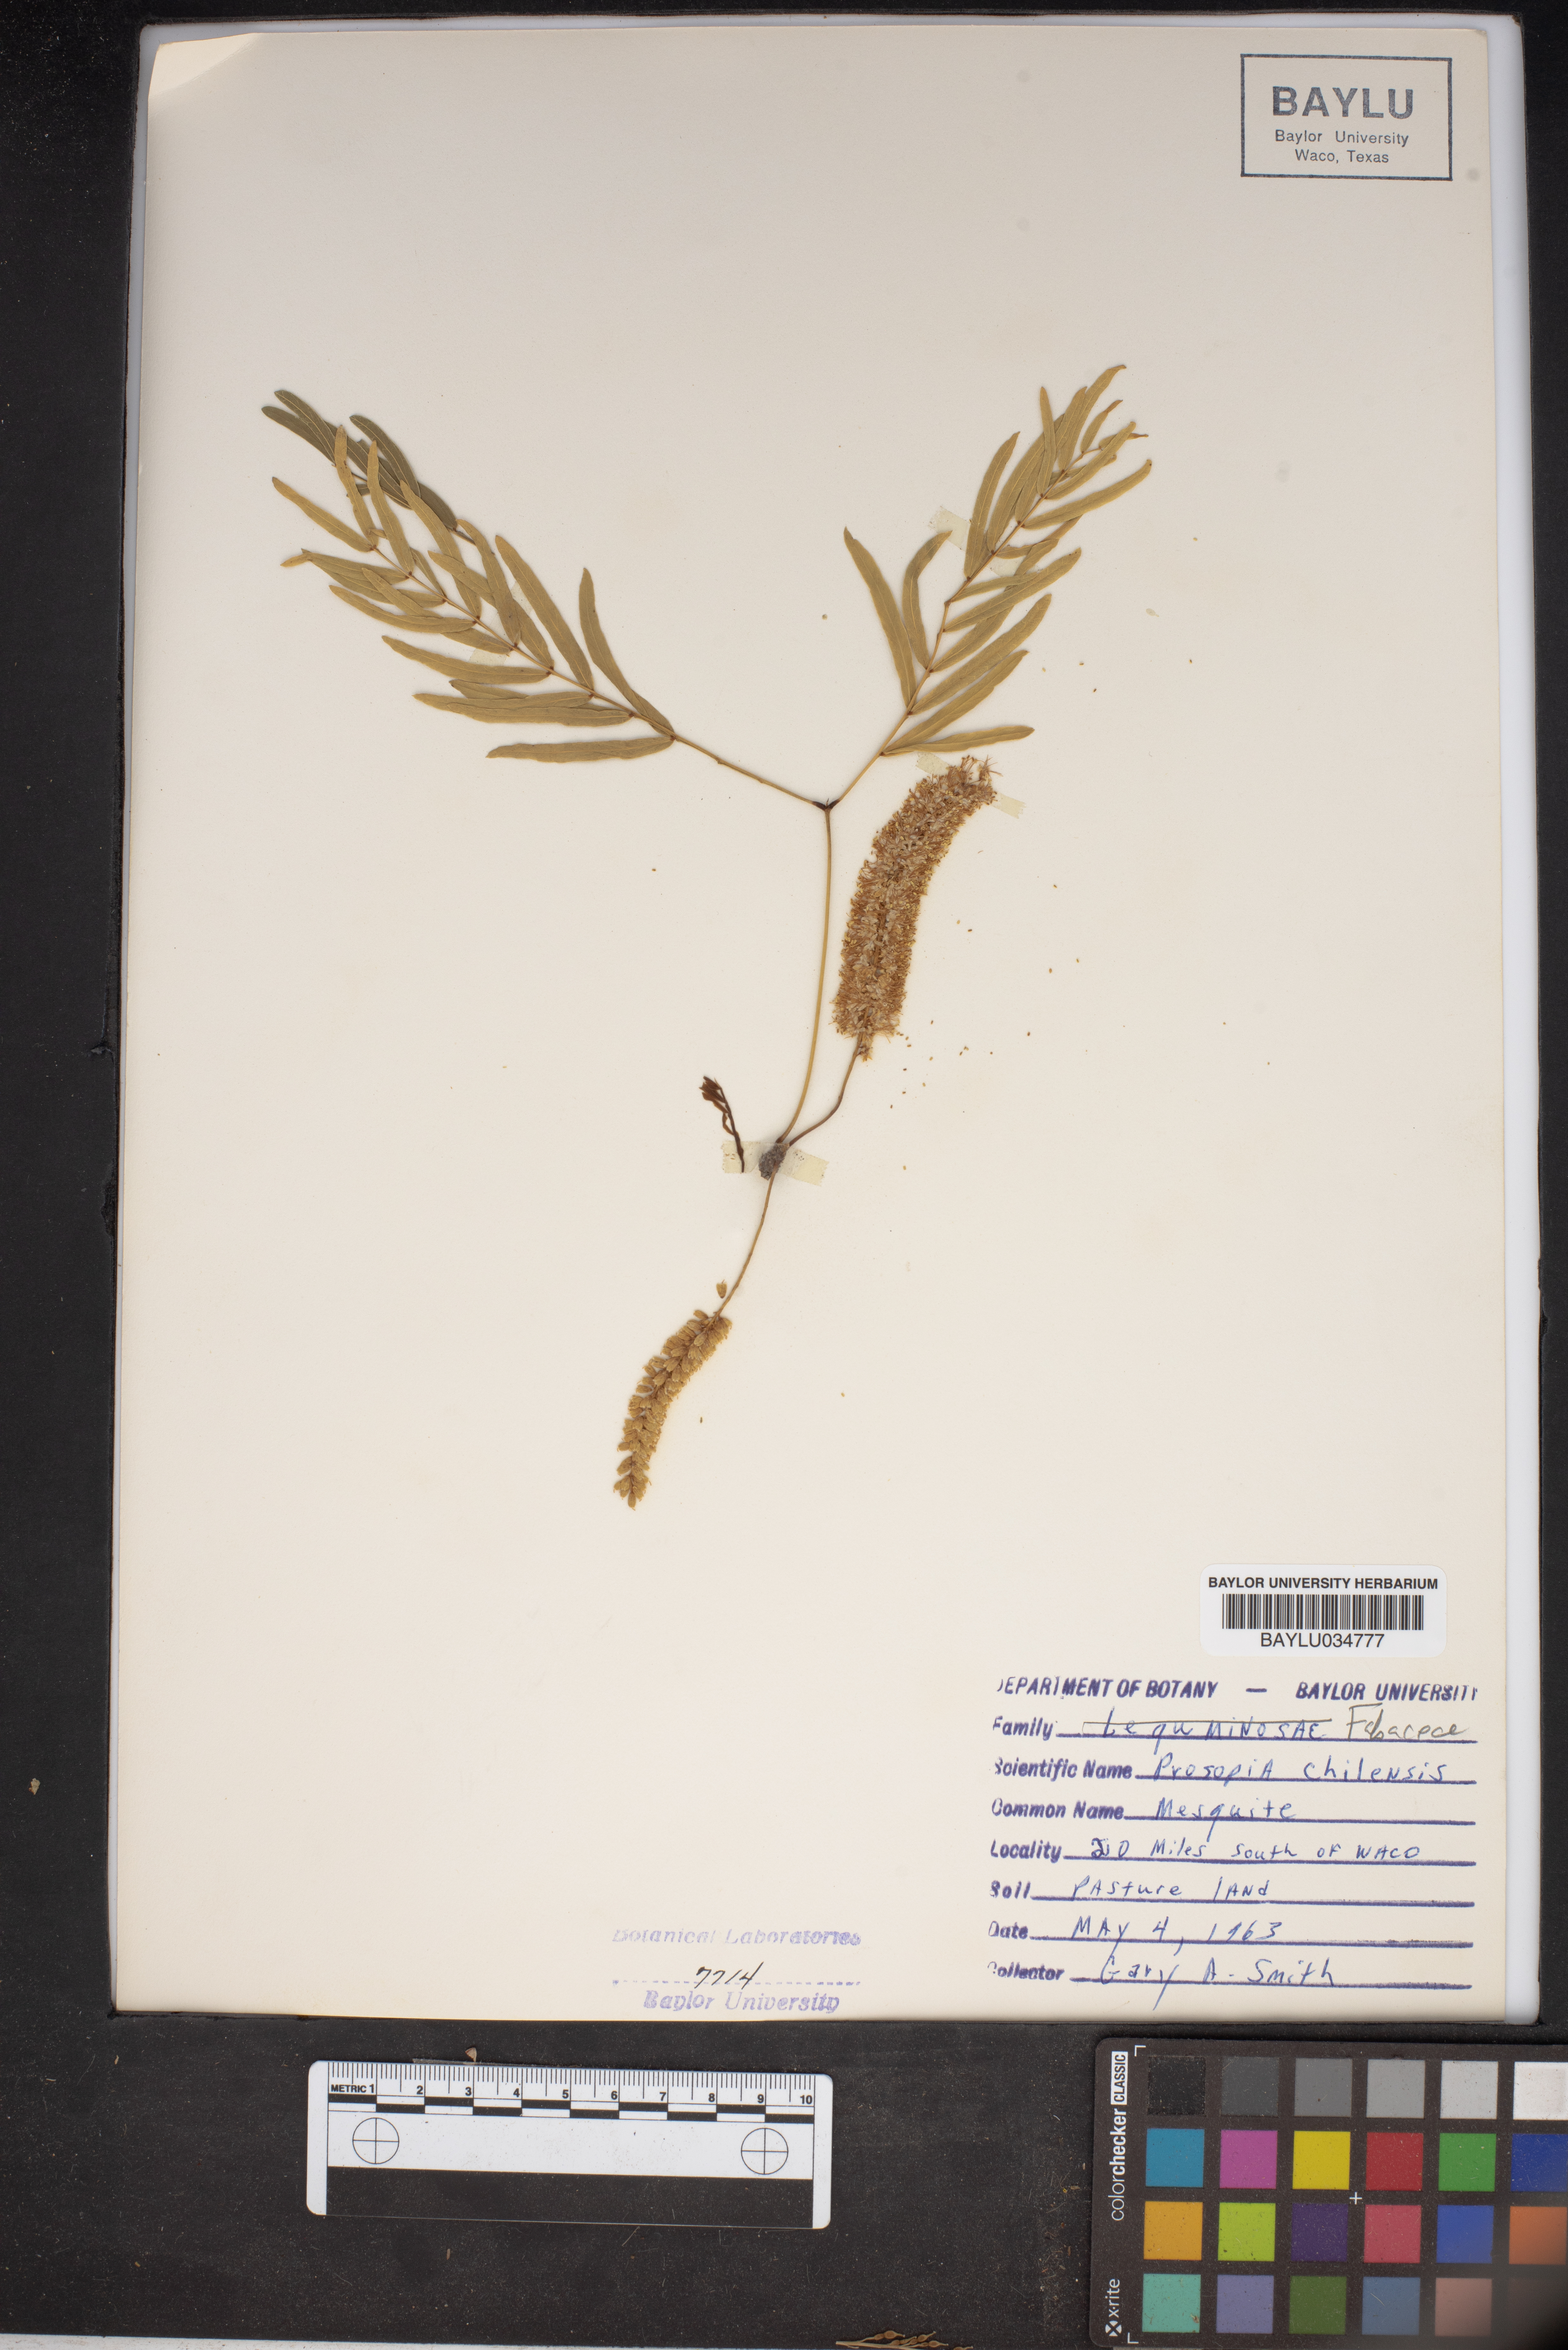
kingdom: Plantae
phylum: Tracheophyta
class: Magnoliopsida
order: Fabales
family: Fabaceae
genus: Prosopis
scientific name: Prosopis chilensis
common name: Chilean algarrobo
